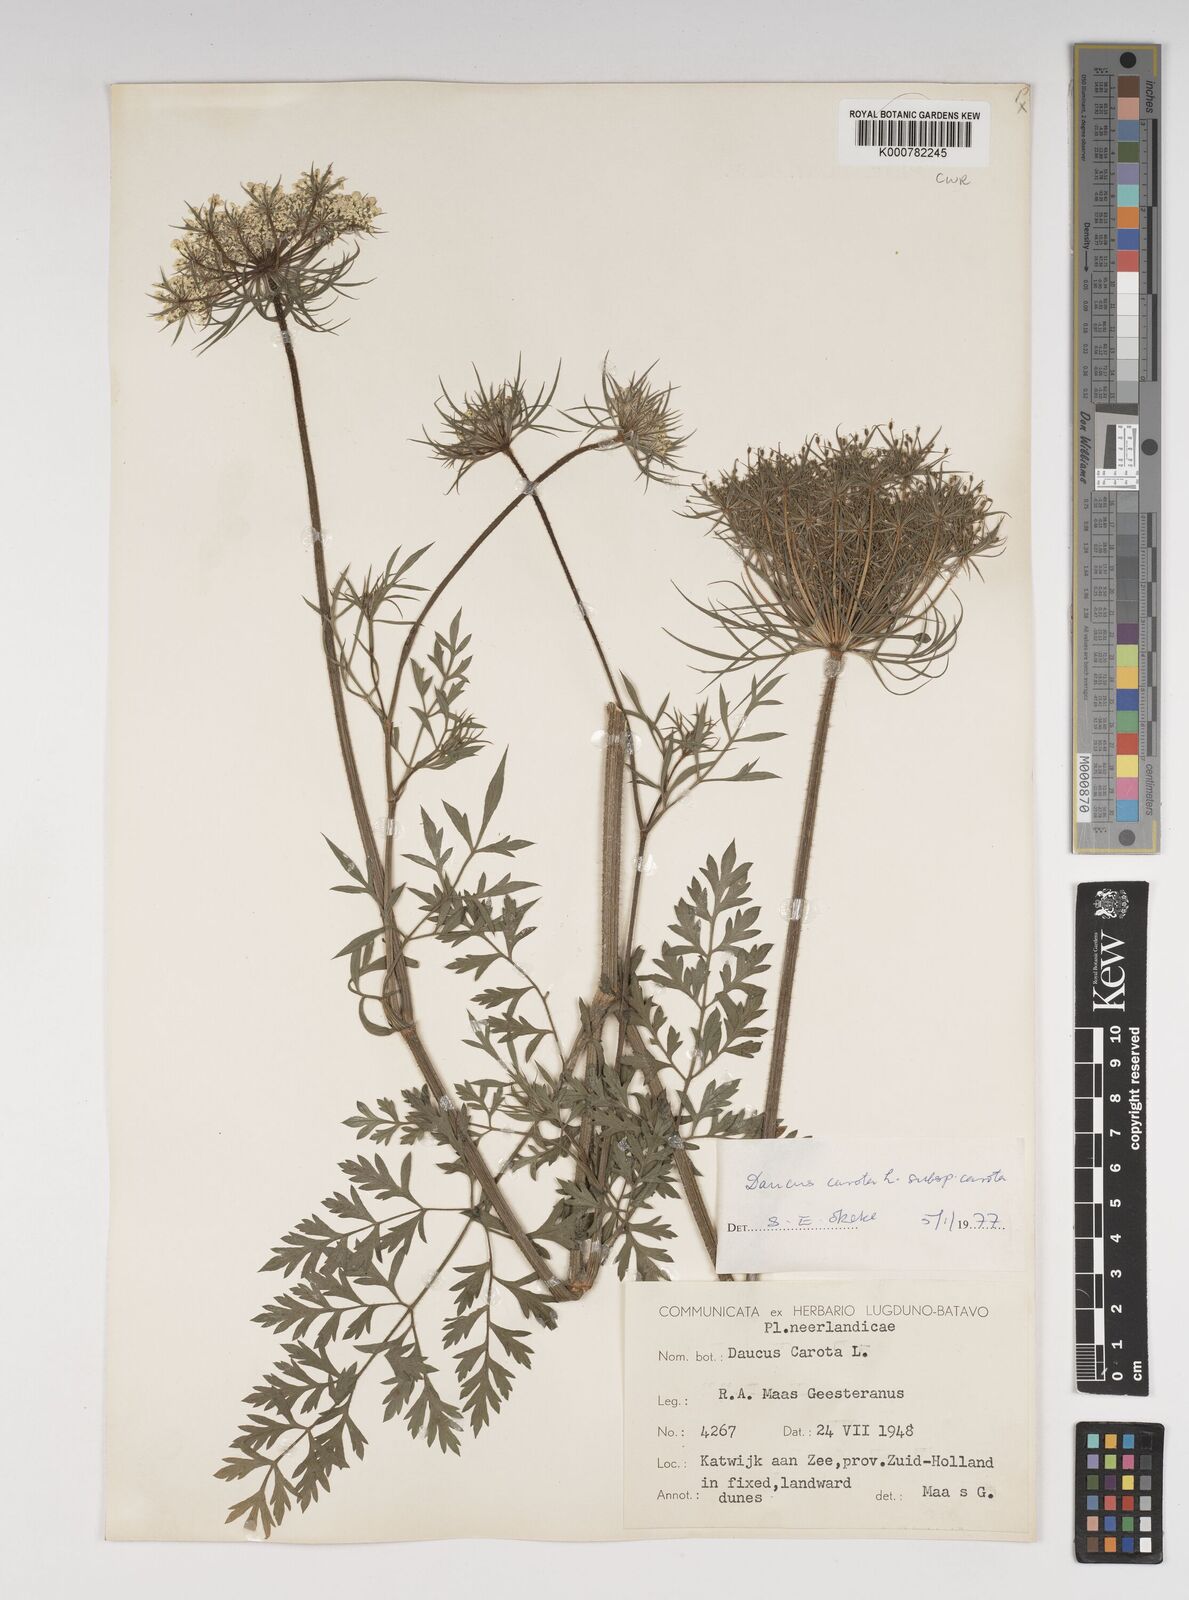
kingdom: Plantae
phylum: Tracheophyta
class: Magnoliopsida
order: Apiales
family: Apiaceae
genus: Daucus
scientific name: Daucus carota
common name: Wild carrot
